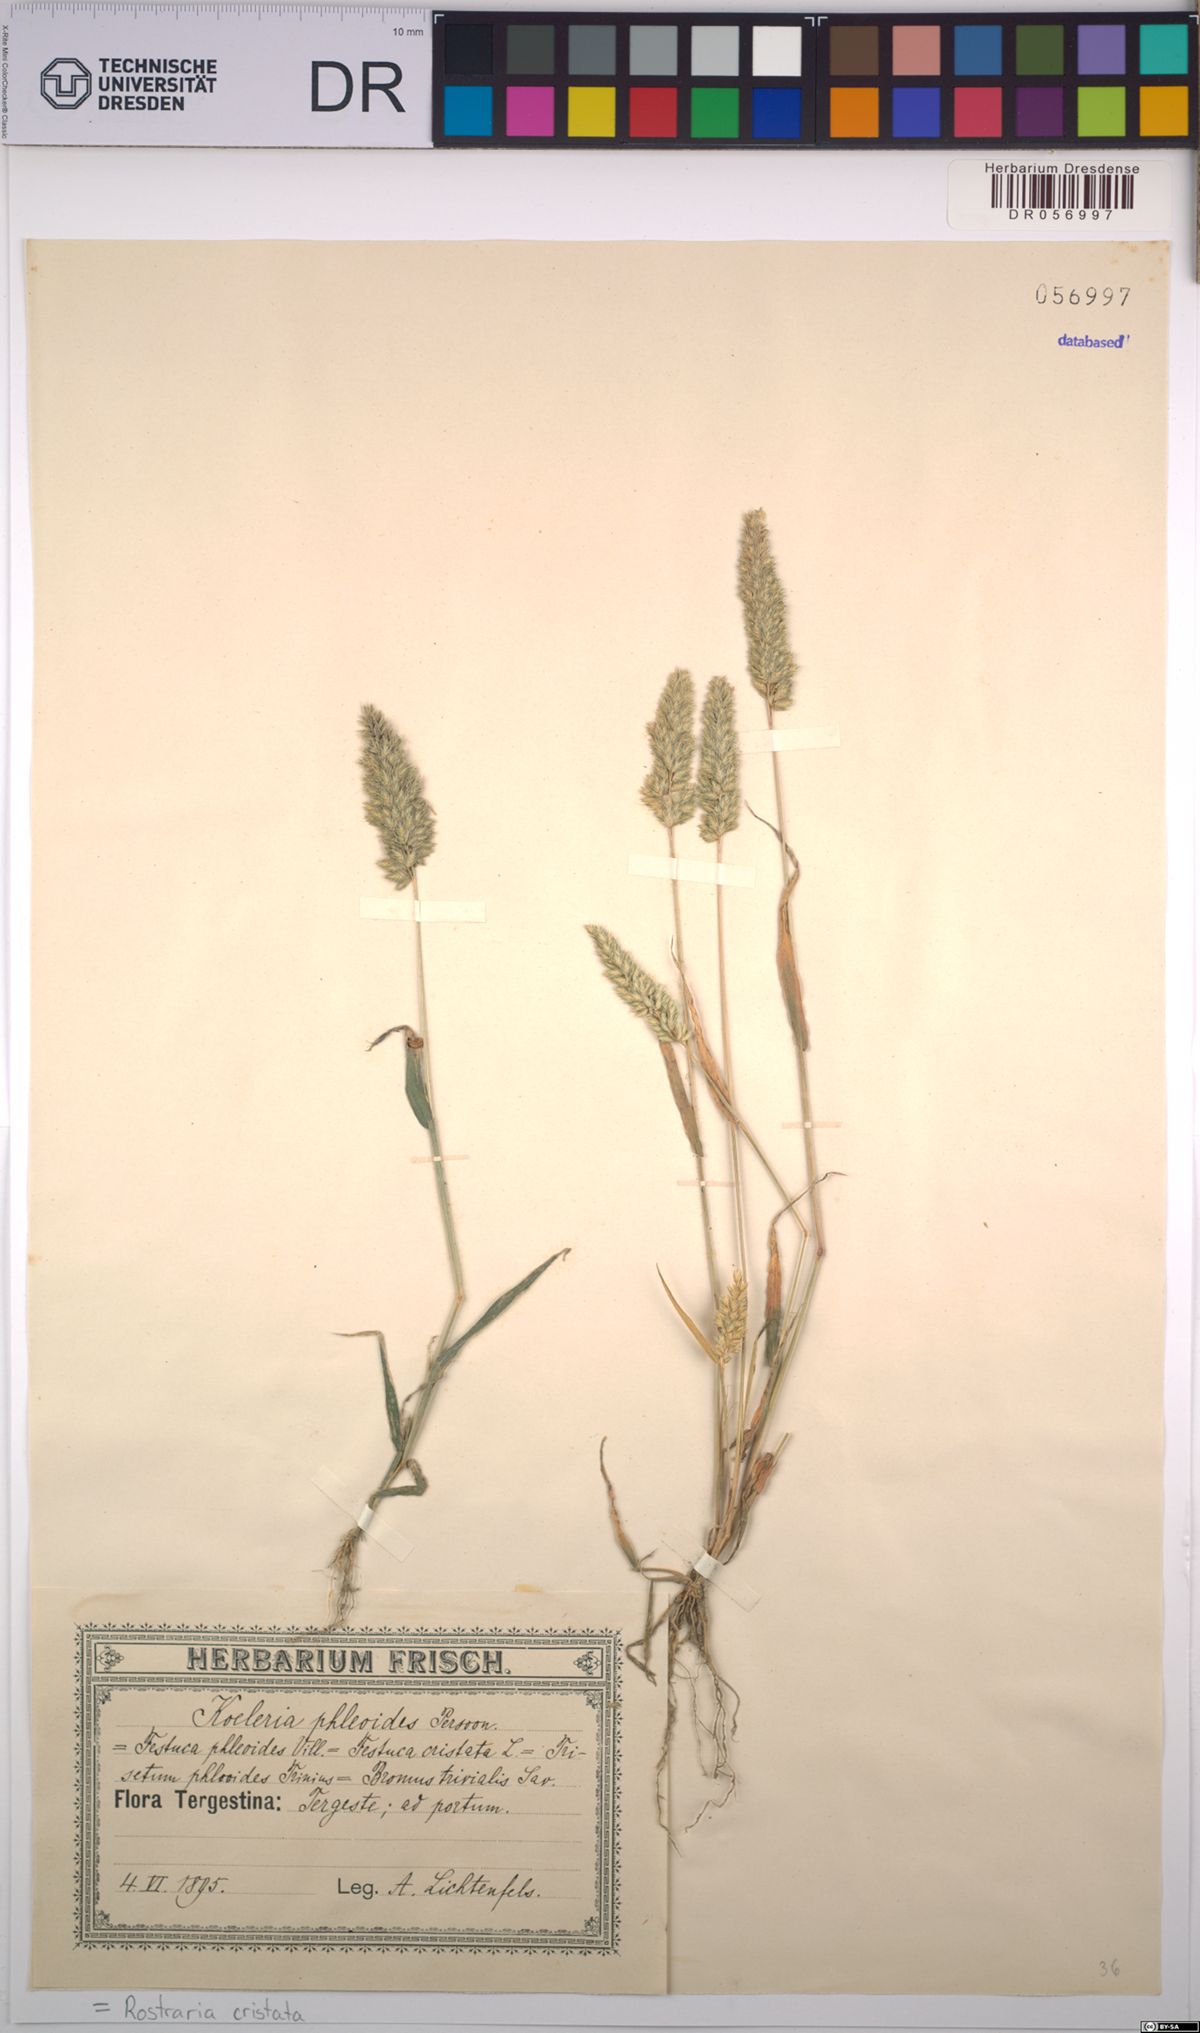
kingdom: Plantae
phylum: Tracheophyta
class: Liliopsida
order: Poales
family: Poaceae
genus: Rostraria
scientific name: Rostraria cristata
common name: Mediterranean hair-grass
